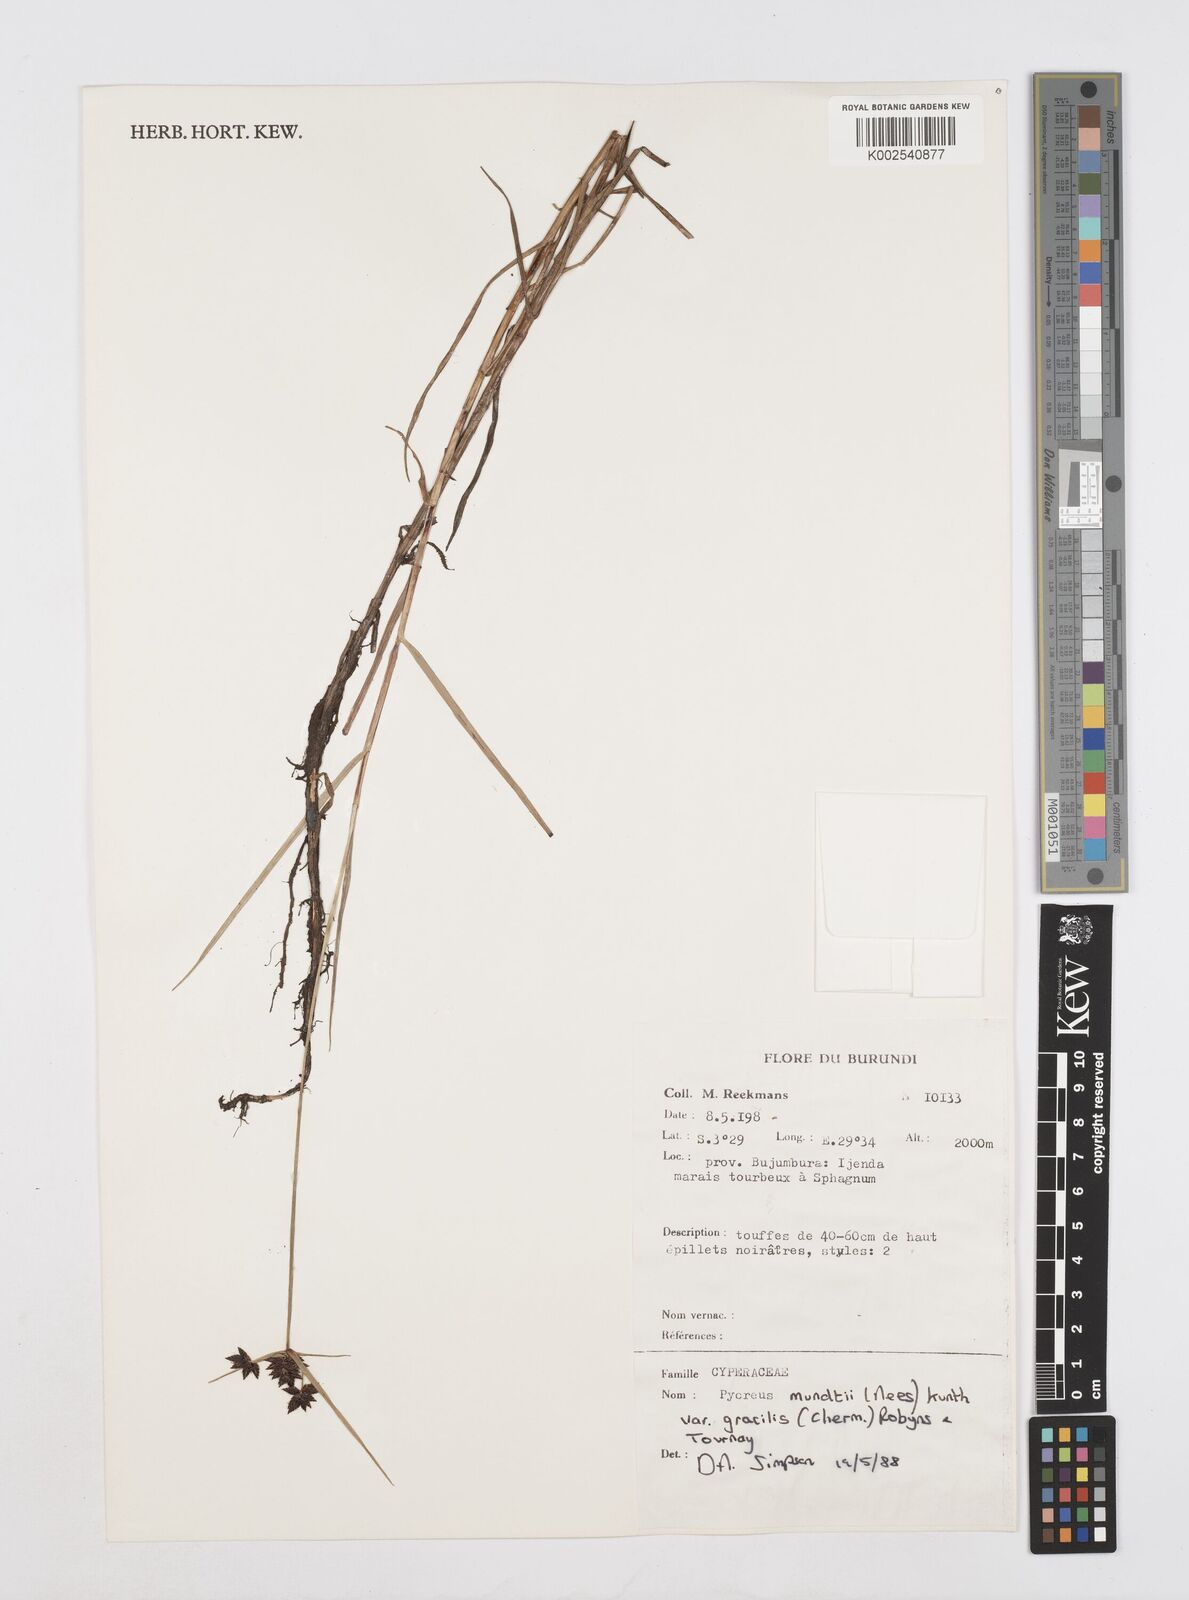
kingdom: Plantae
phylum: Tracheophyta
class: Liliopsida
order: Poales
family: Cyperaceae
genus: Cyperus
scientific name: Cyperus mundii
